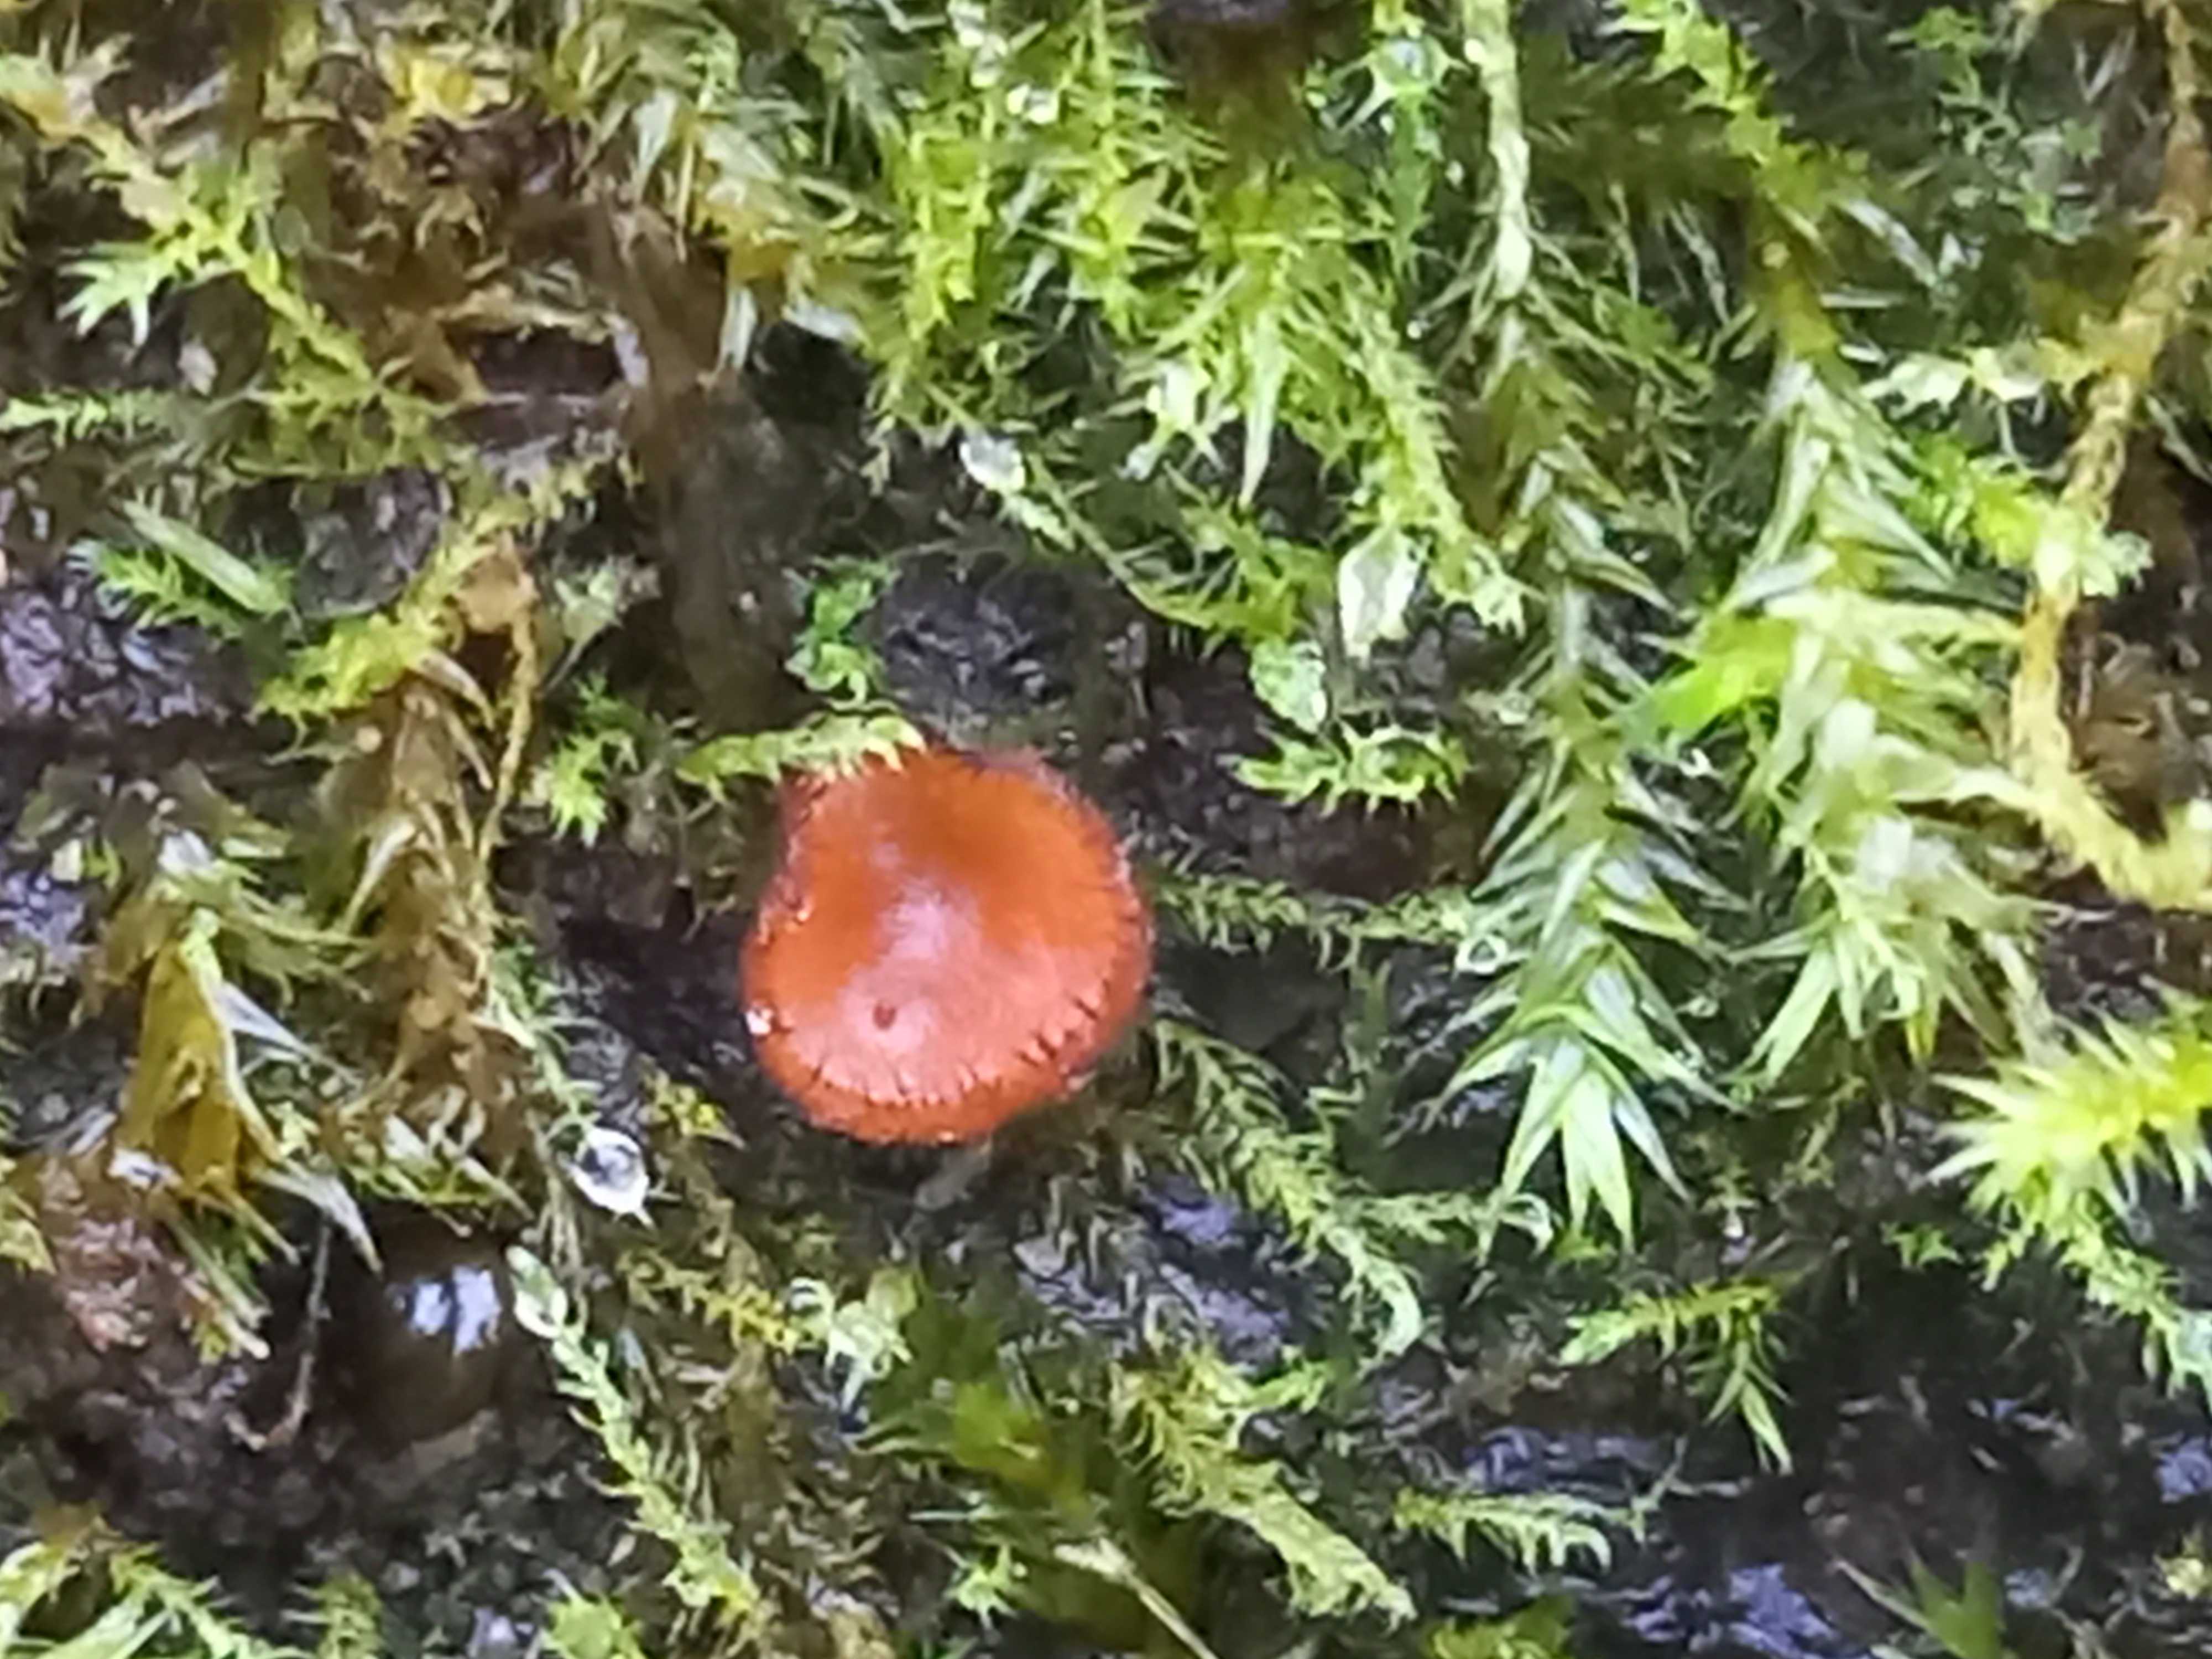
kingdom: Fungi
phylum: Ascomycota
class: Pezizomycetes
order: Pezizales
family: Pyronemataceae
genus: Scutellinia
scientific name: Scutellinia scutellata
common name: frynset skjoldbæger
